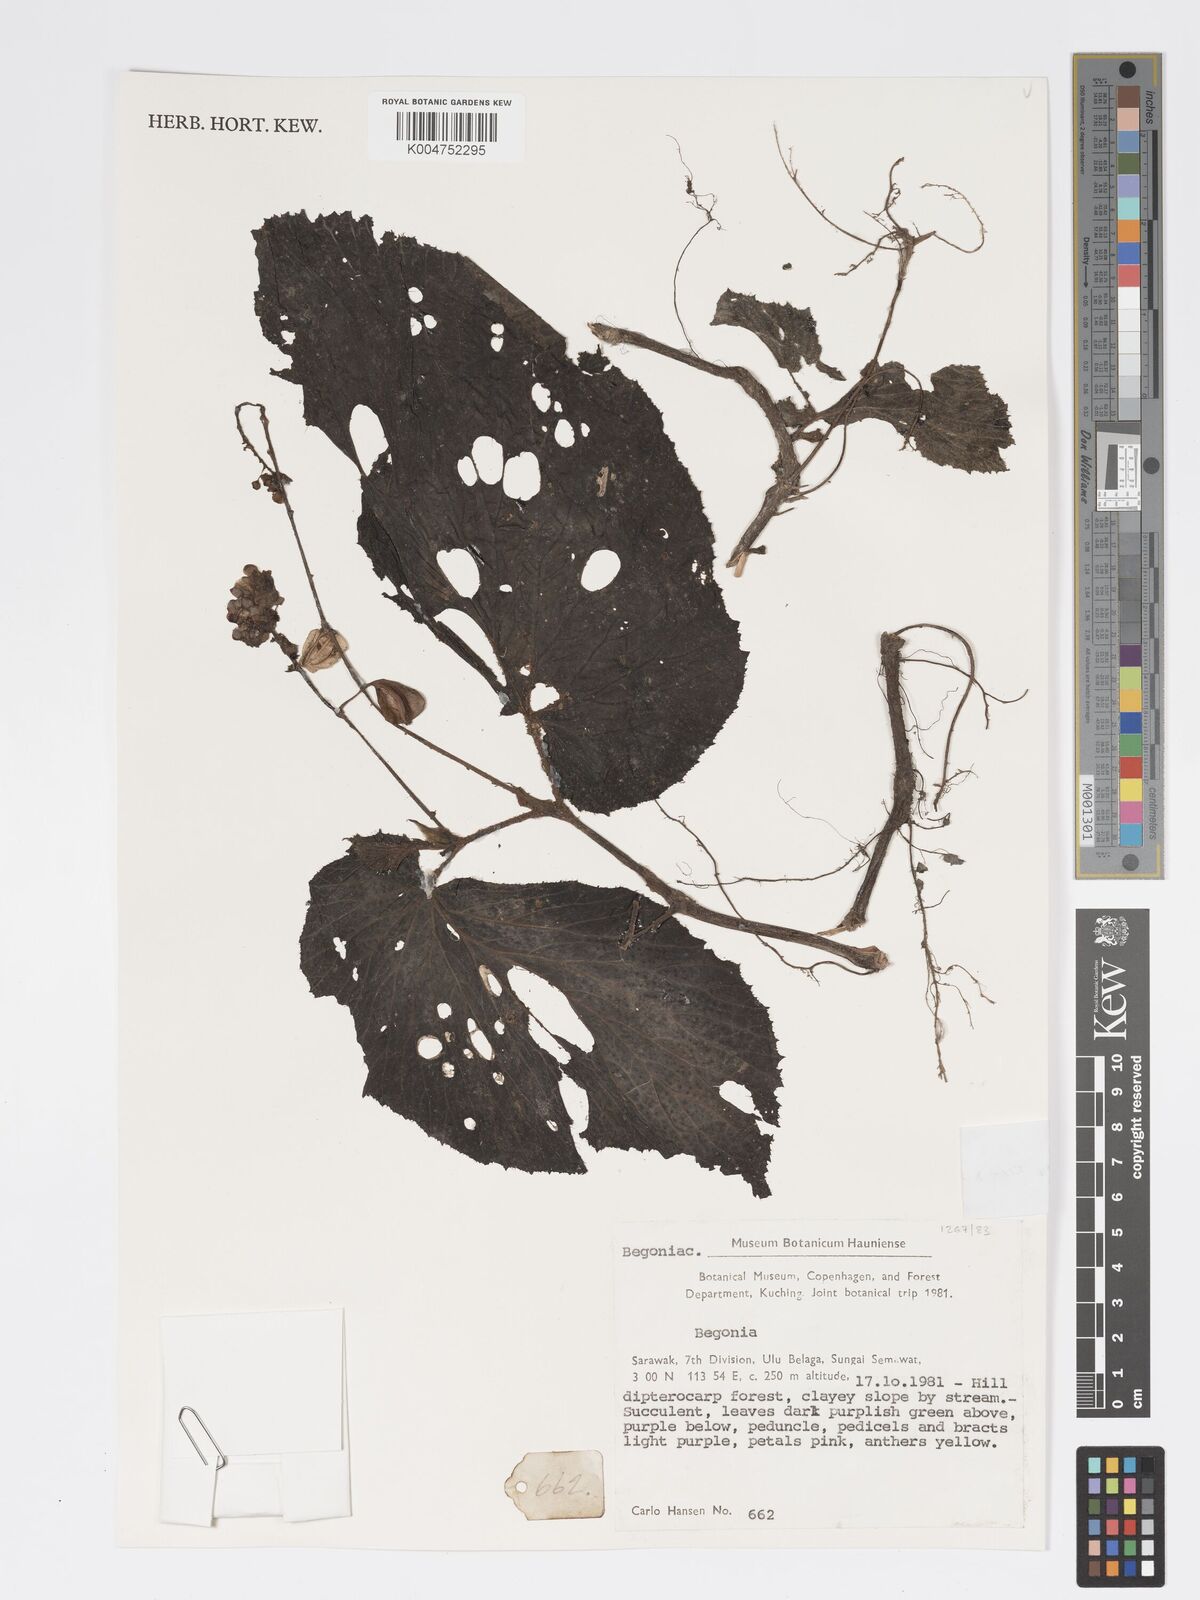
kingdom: Plantae
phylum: Tracheophyta
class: Magnoliopsida
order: Cucurbitales
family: Begoniaceae
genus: Begonia
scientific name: Begonia corrugata
